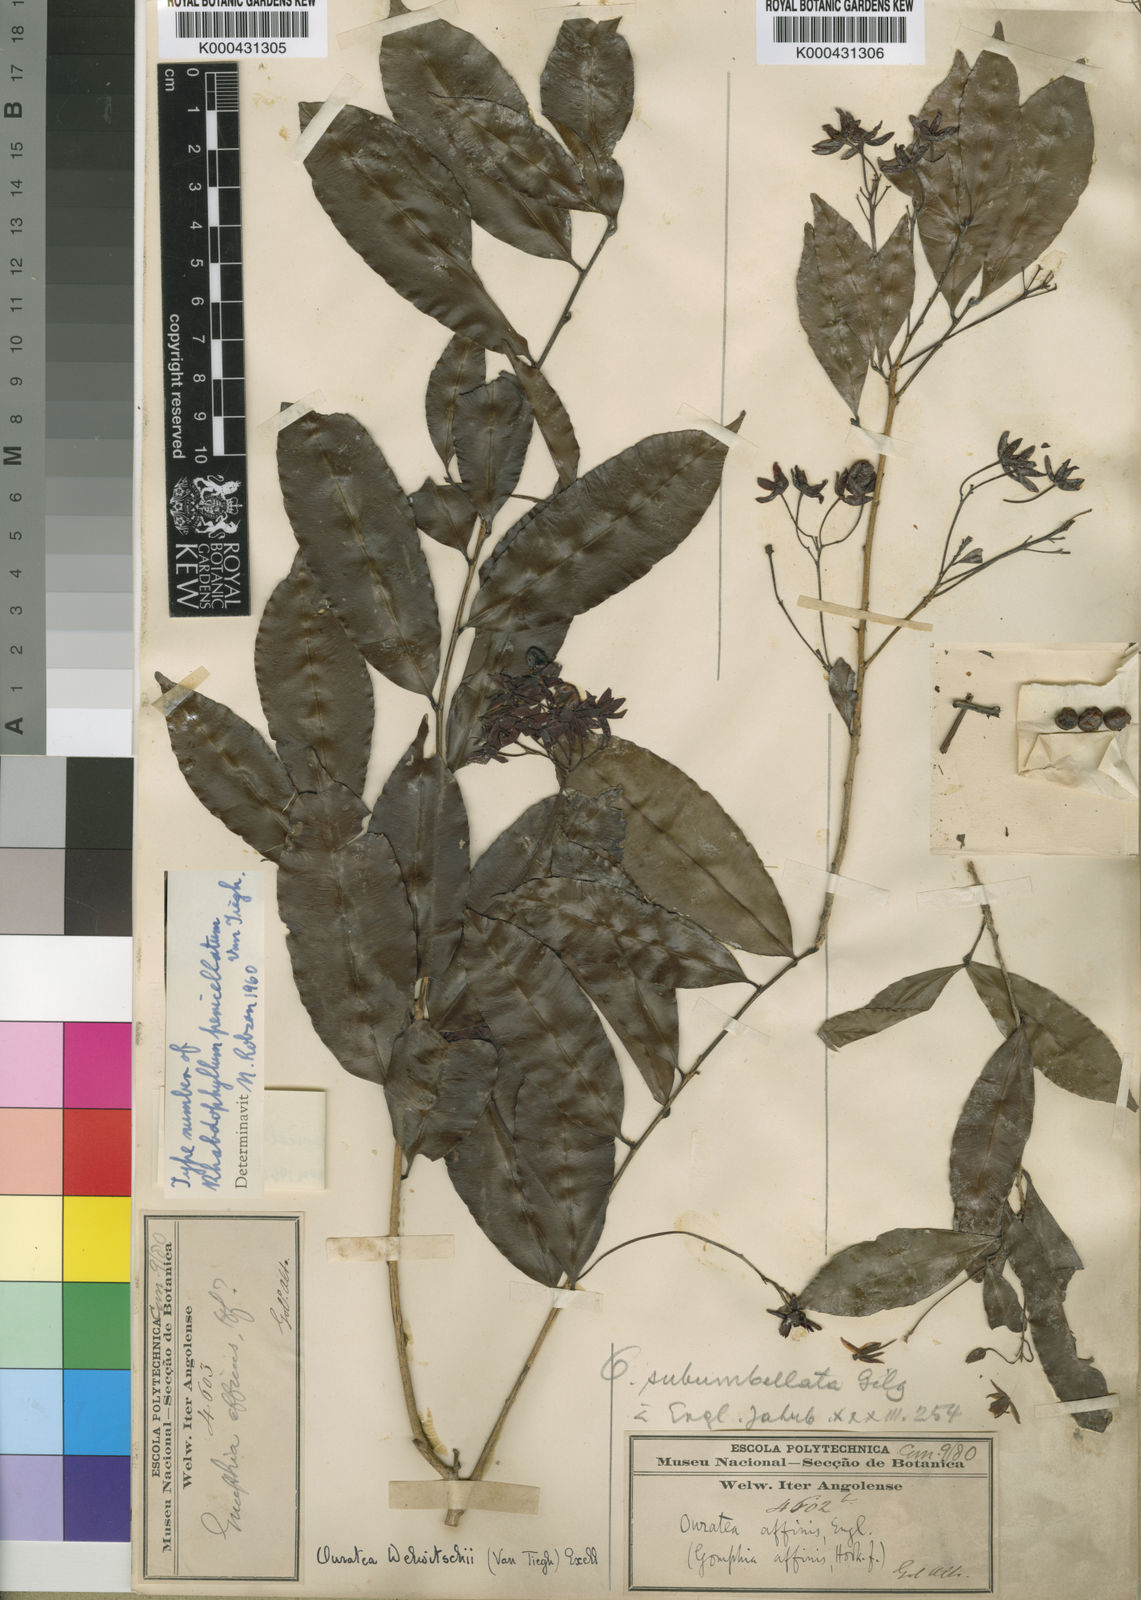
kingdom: Plantae
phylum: Tracheophyta
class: Magnoliopsida
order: Malpighiales
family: Ochnaceae
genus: Rhabdophyllum
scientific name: Rhabdophyllum welwitschii
